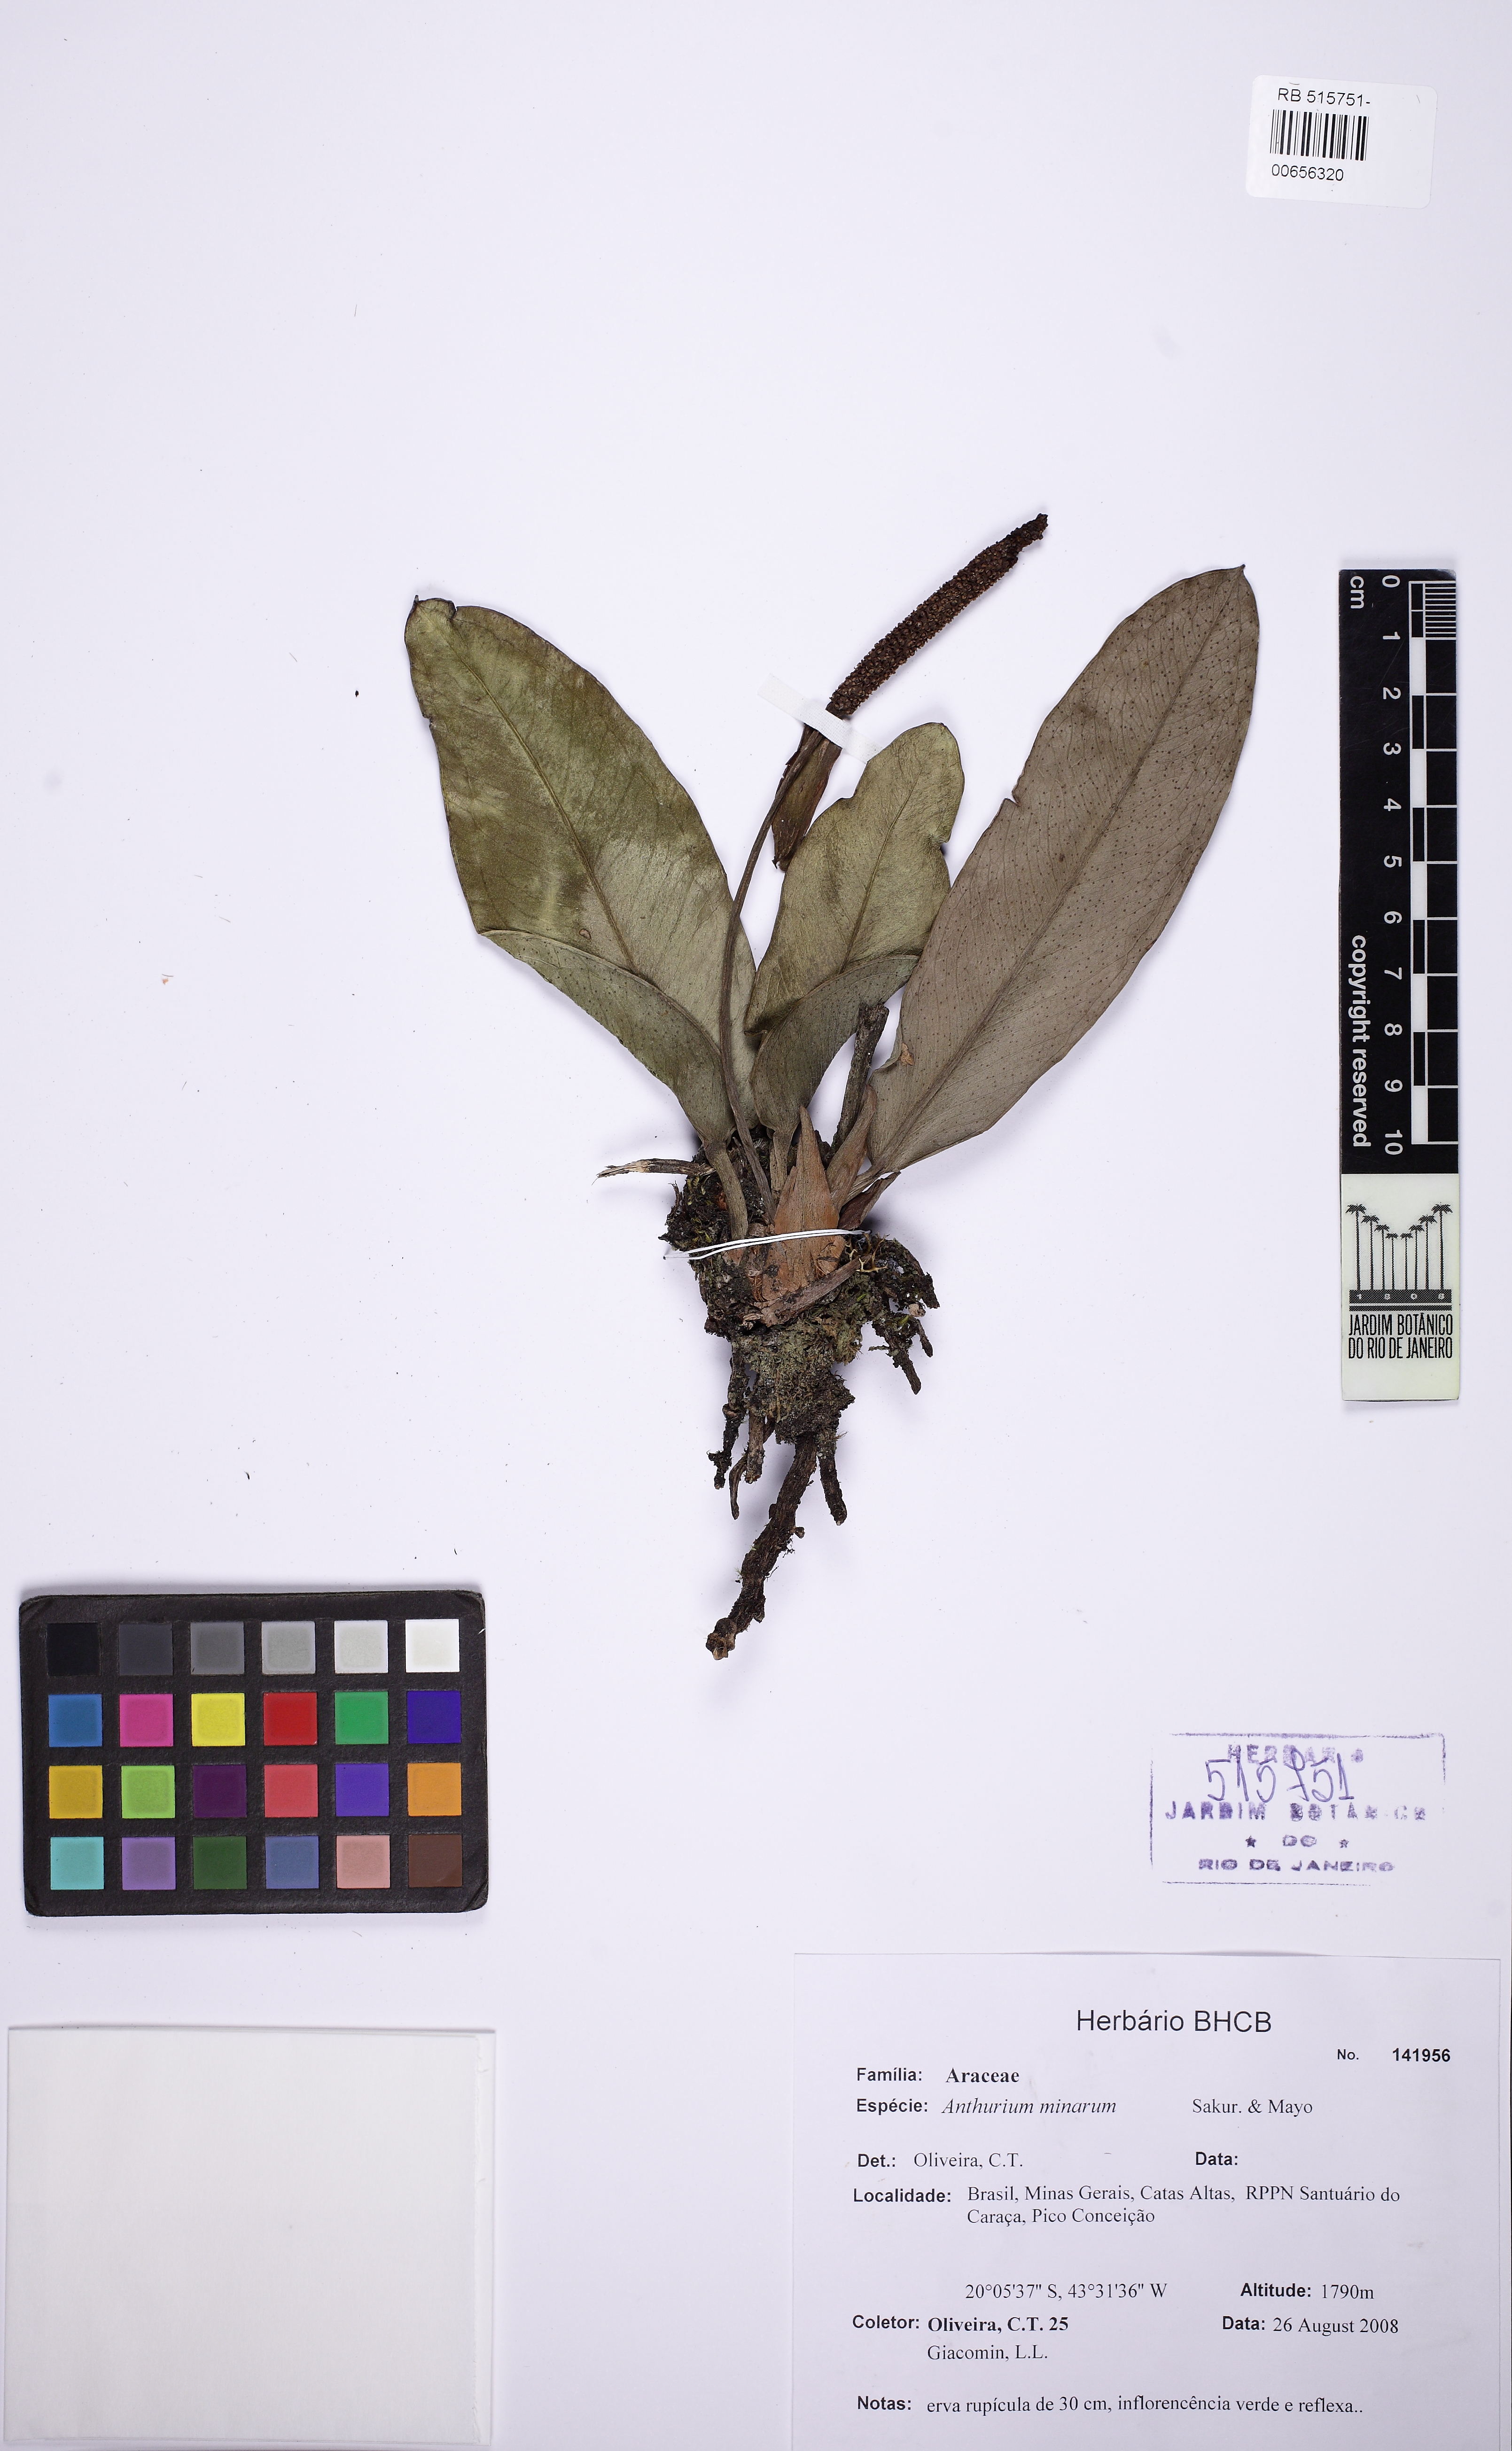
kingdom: Plantae
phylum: Tracheophyta
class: Liliopsida
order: Alismatales
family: Araceae
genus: Anthurium
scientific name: Anthurium minarum
